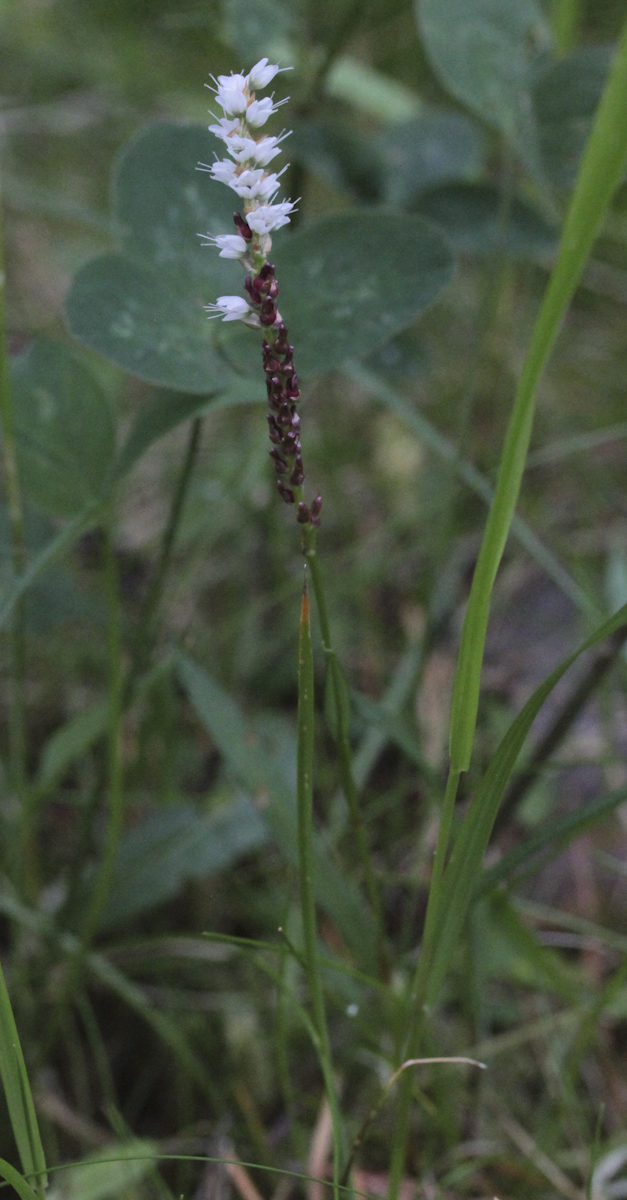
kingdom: Plantae
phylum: Tracheophyta
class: Magnoliopsida
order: Ericales
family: Ericaceae
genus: Pyrola
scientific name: Pyrola rotundifolia
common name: Round-leaved wintergreen
